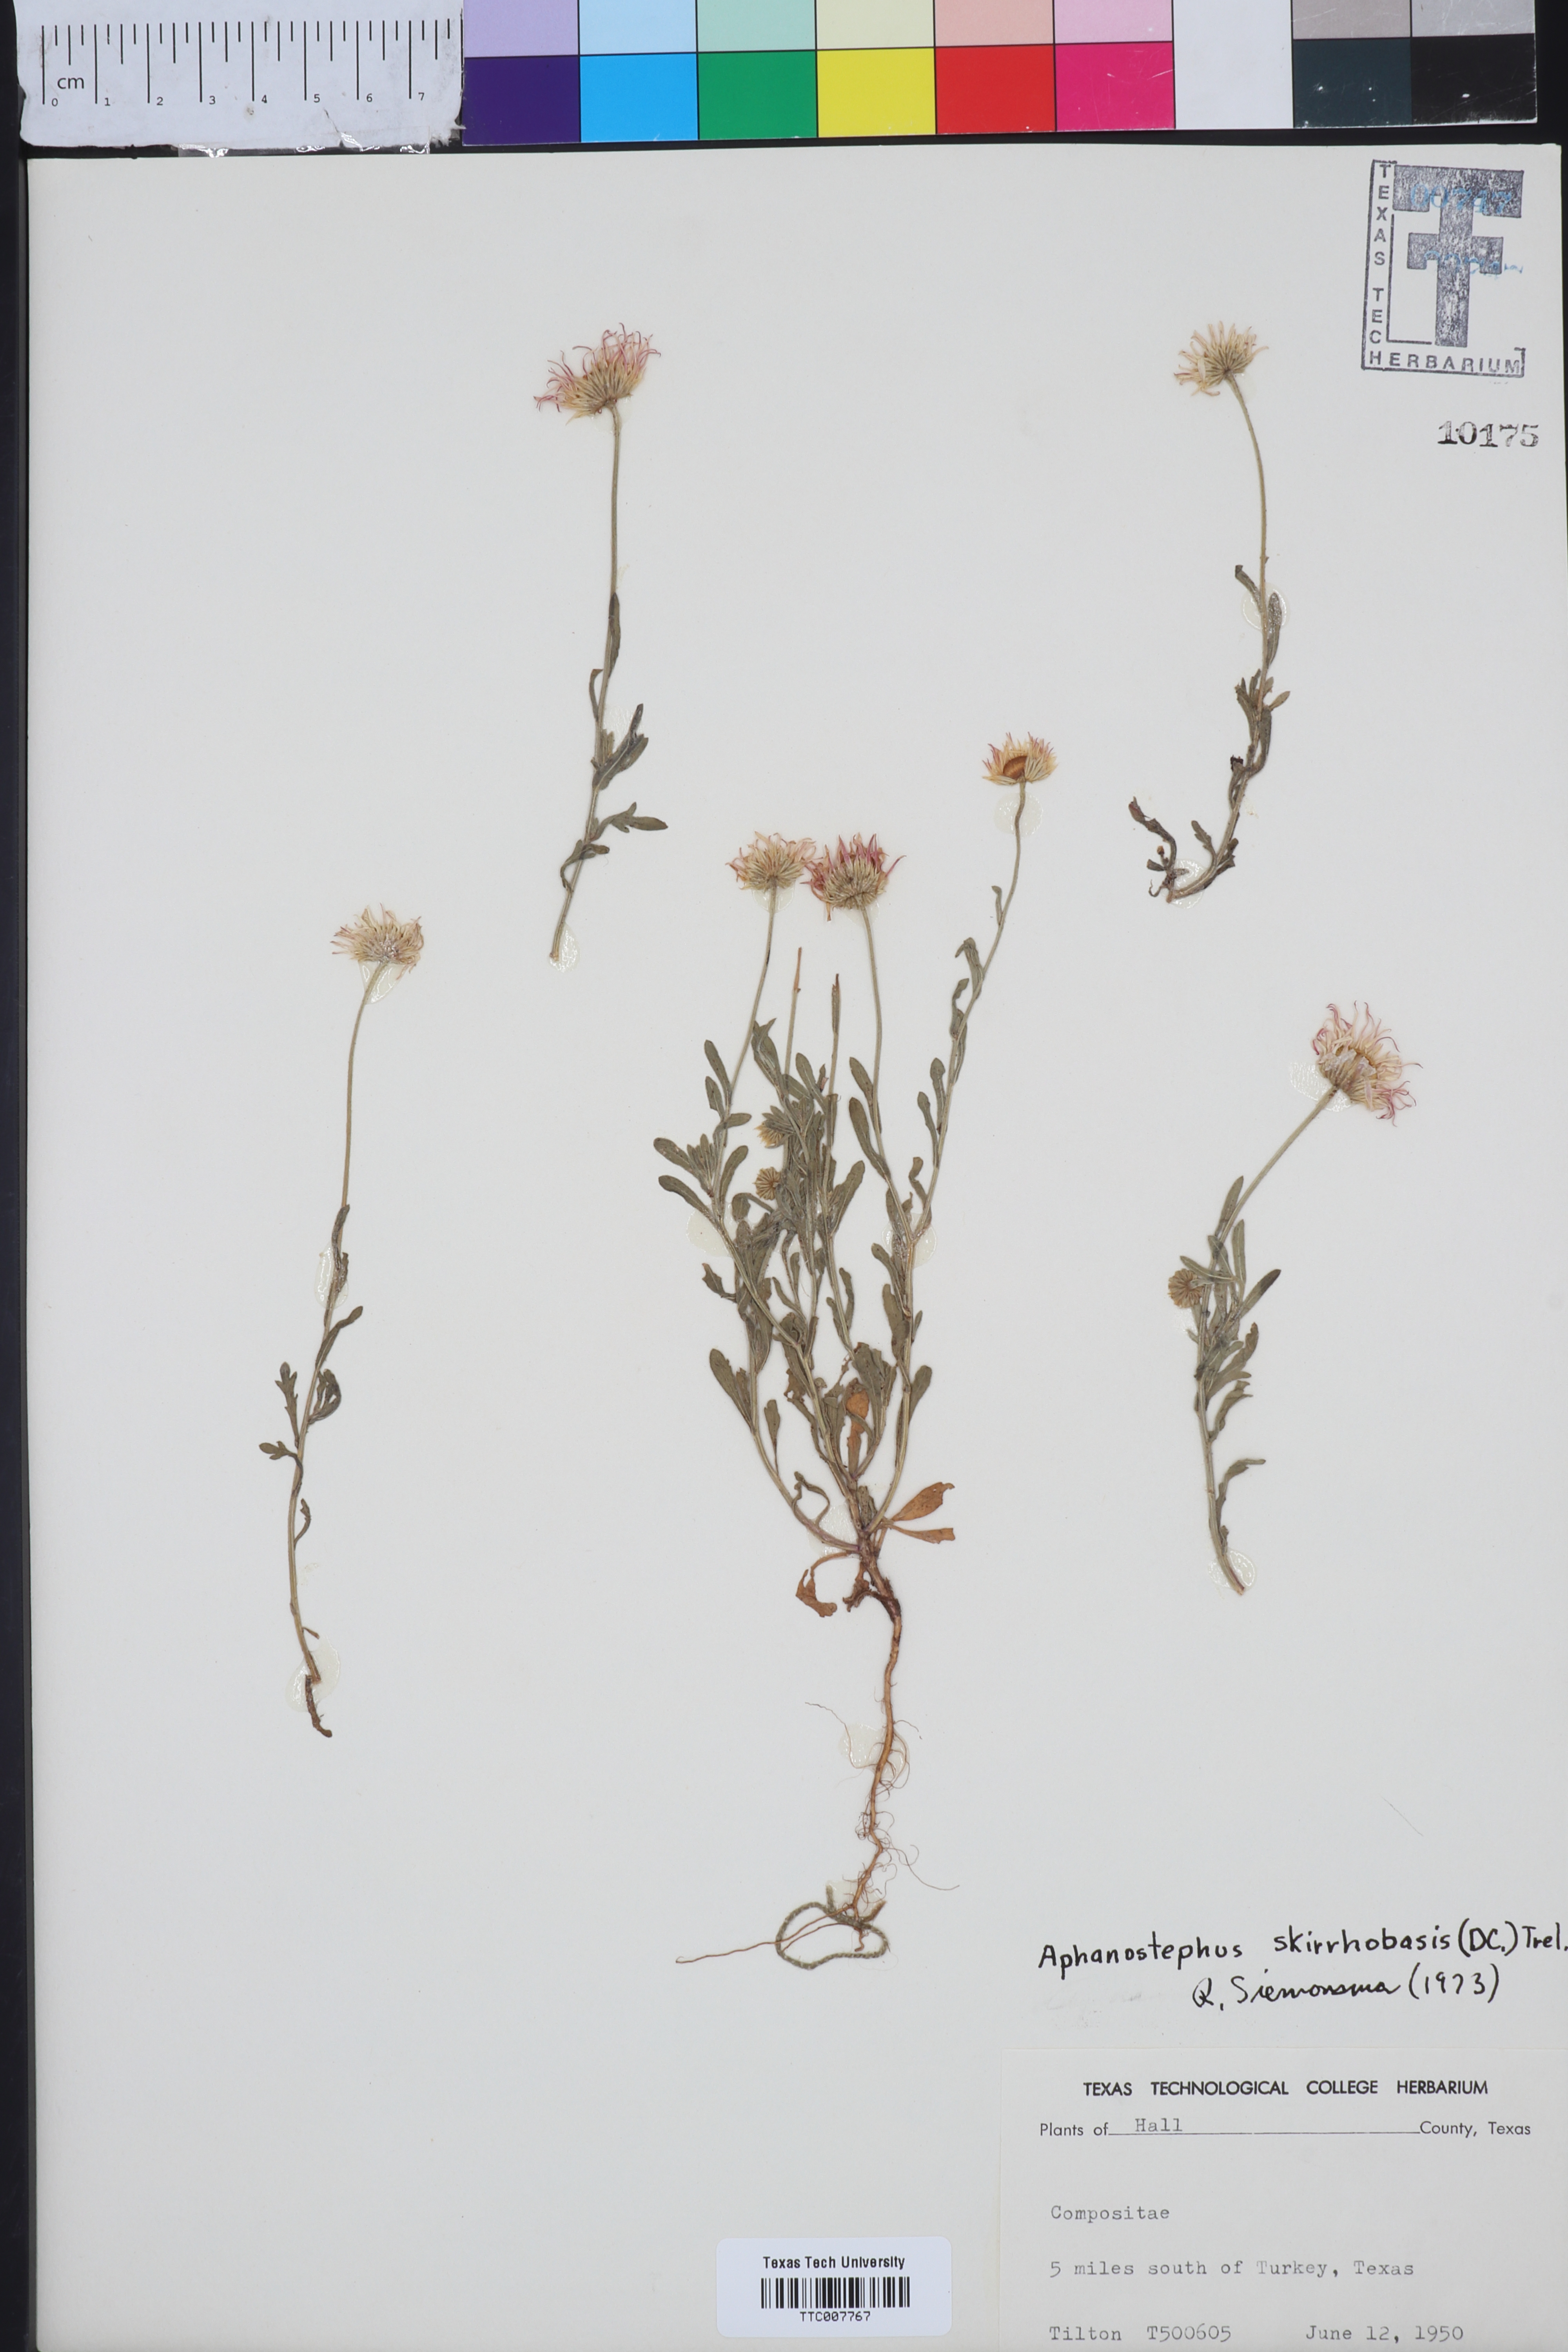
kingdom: Plantae
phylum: Tracheophyta
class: Magnoliopsida
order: Asterales
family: Asteraceae
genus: Aphanostephus
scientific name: Aphanostephus skirrhobasis
